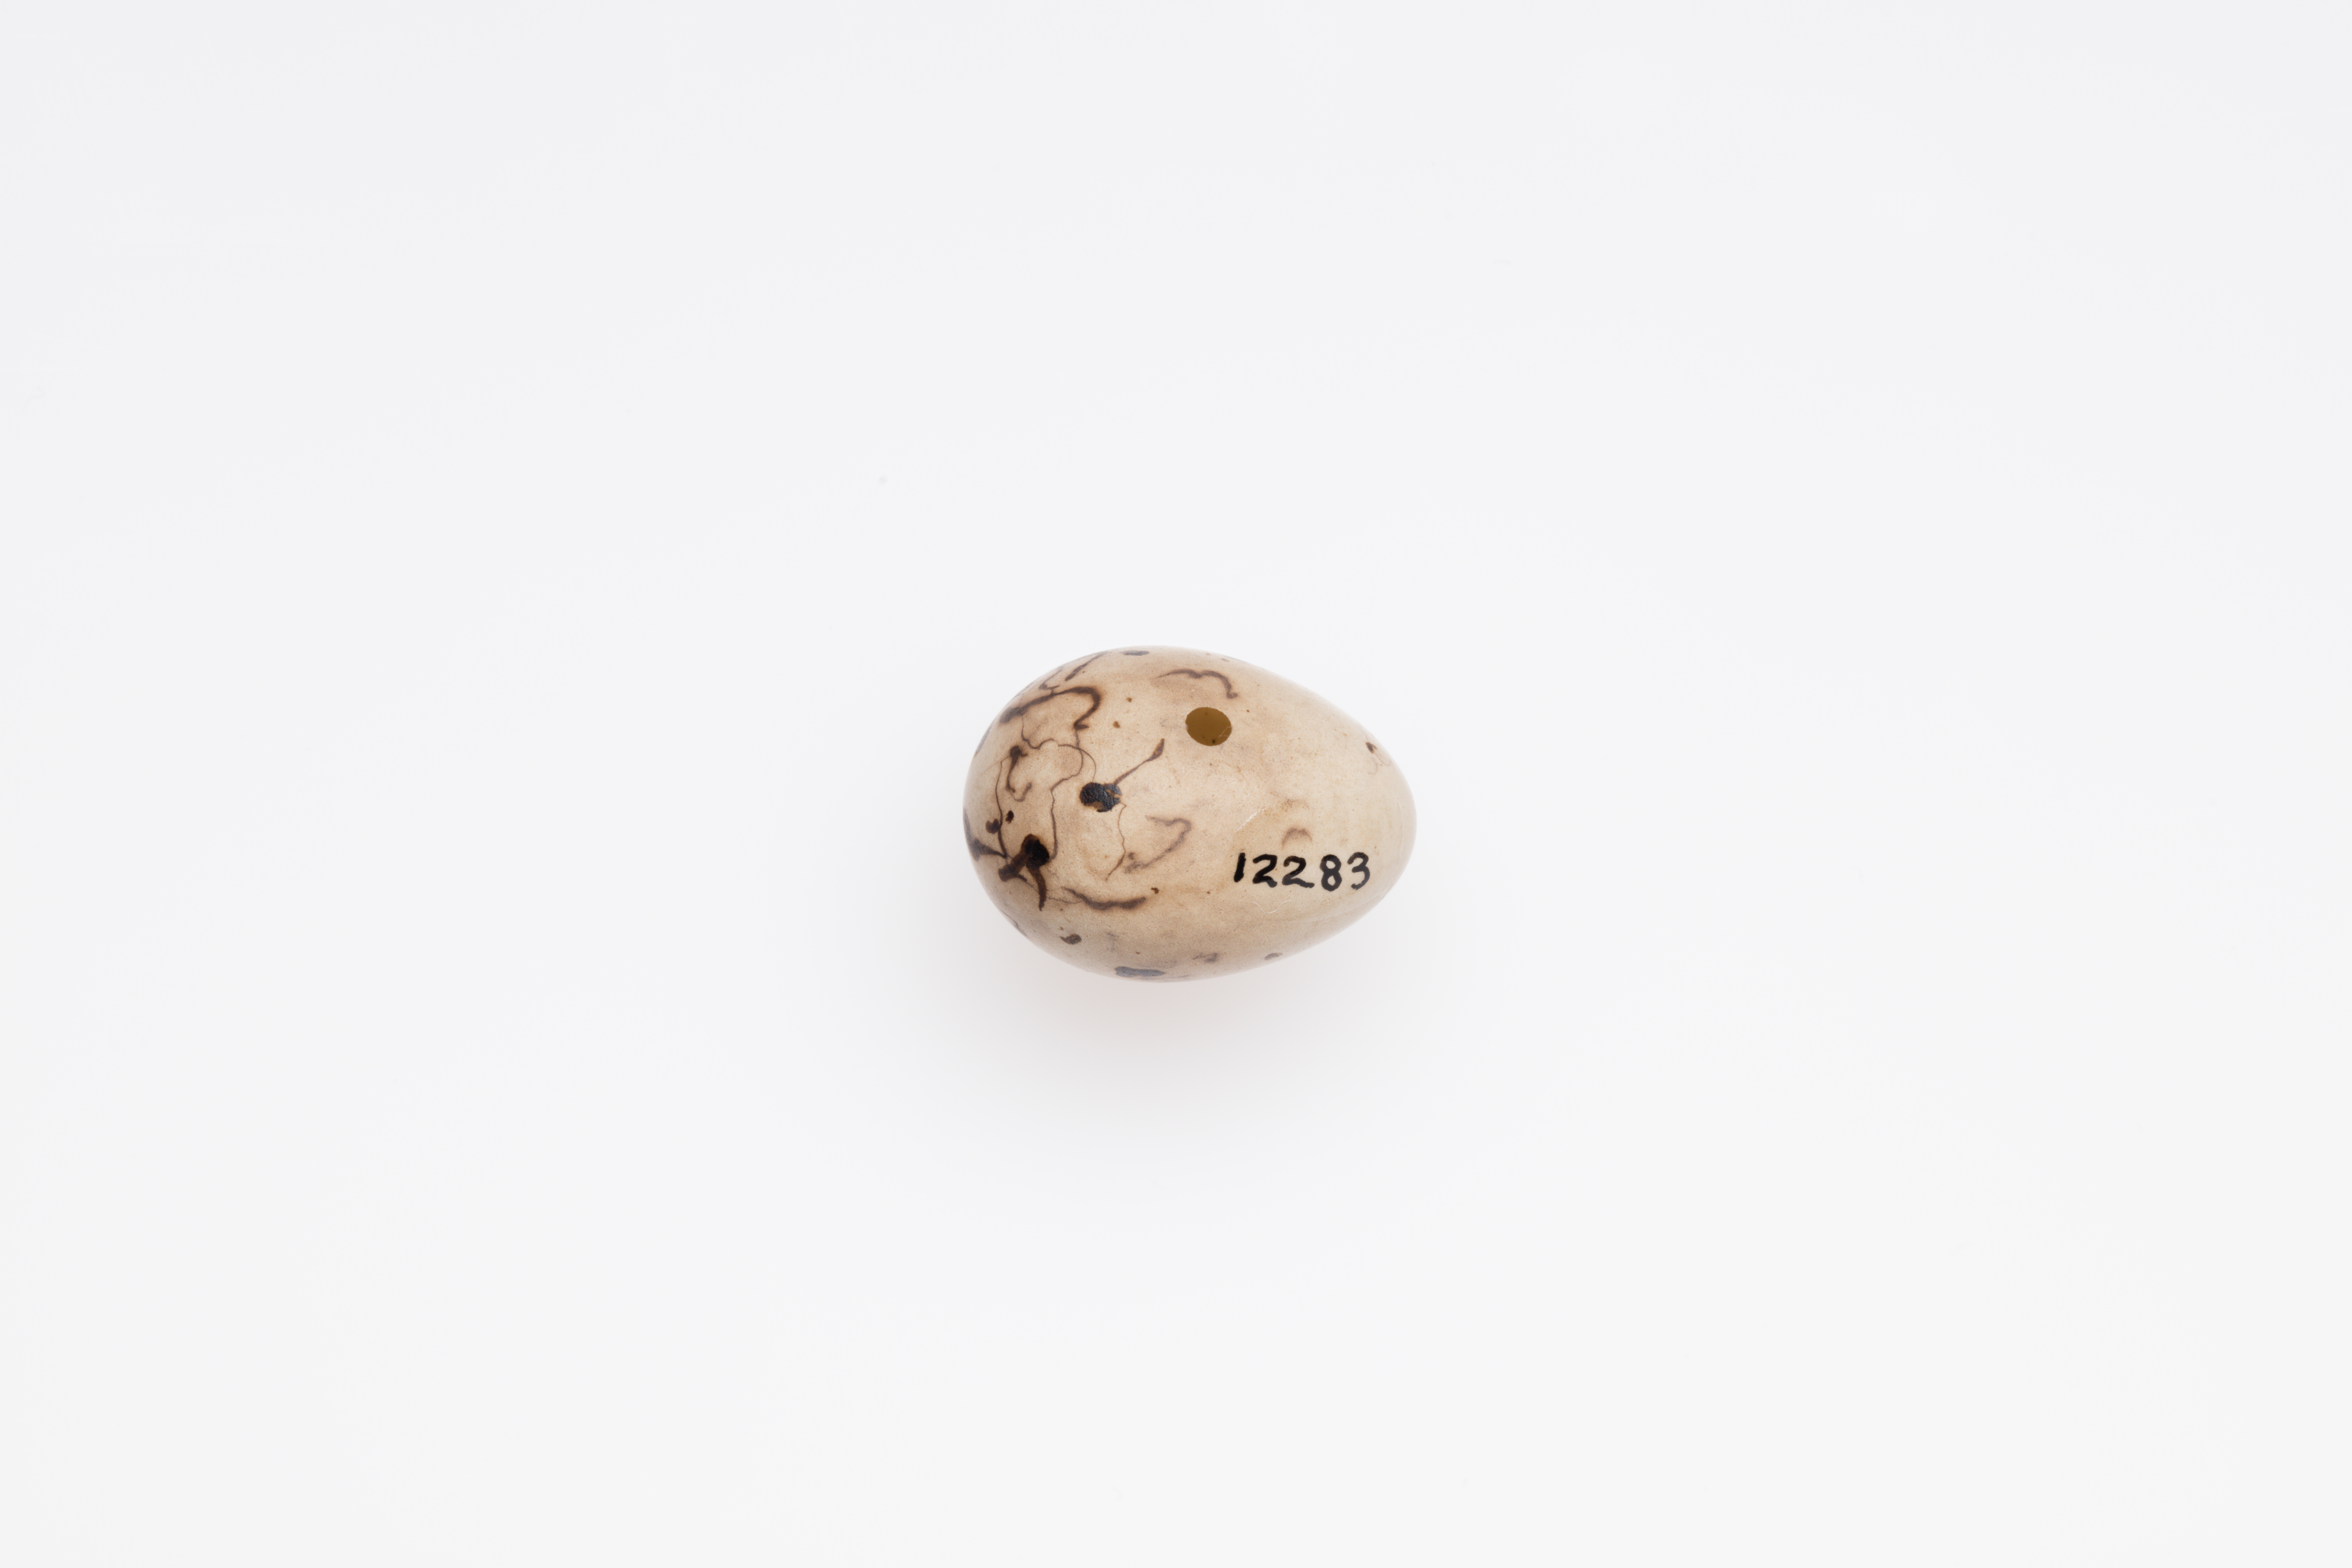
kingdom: Animalia
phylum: Chordata
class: Aves
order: Passeriformes
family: Emberizidae
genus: Emberiza
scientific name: Emberiza schoeniclus
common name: Reed bunting
